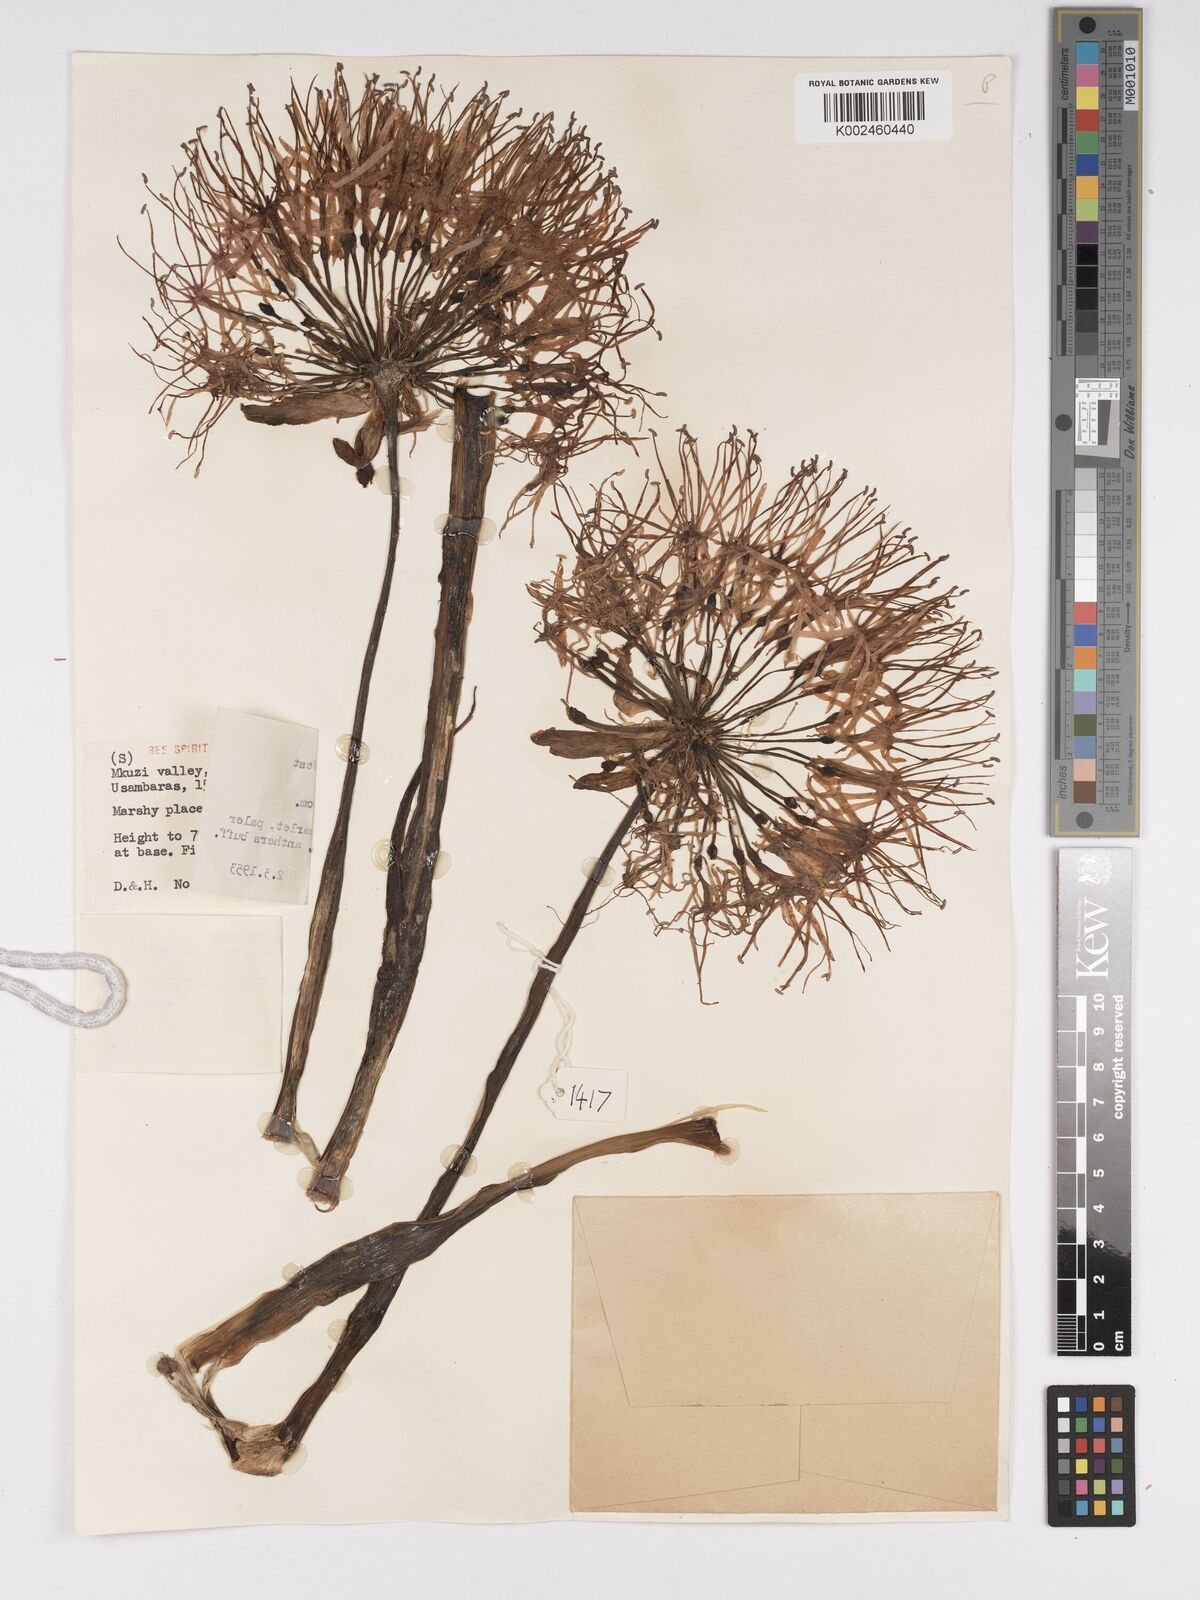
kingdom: Plantae
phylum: Tracheophyta
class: Liliopsida
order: Asparagales
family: Amaryllidaceae
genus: Scadoxus
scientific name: Scadoxus multiflorus
